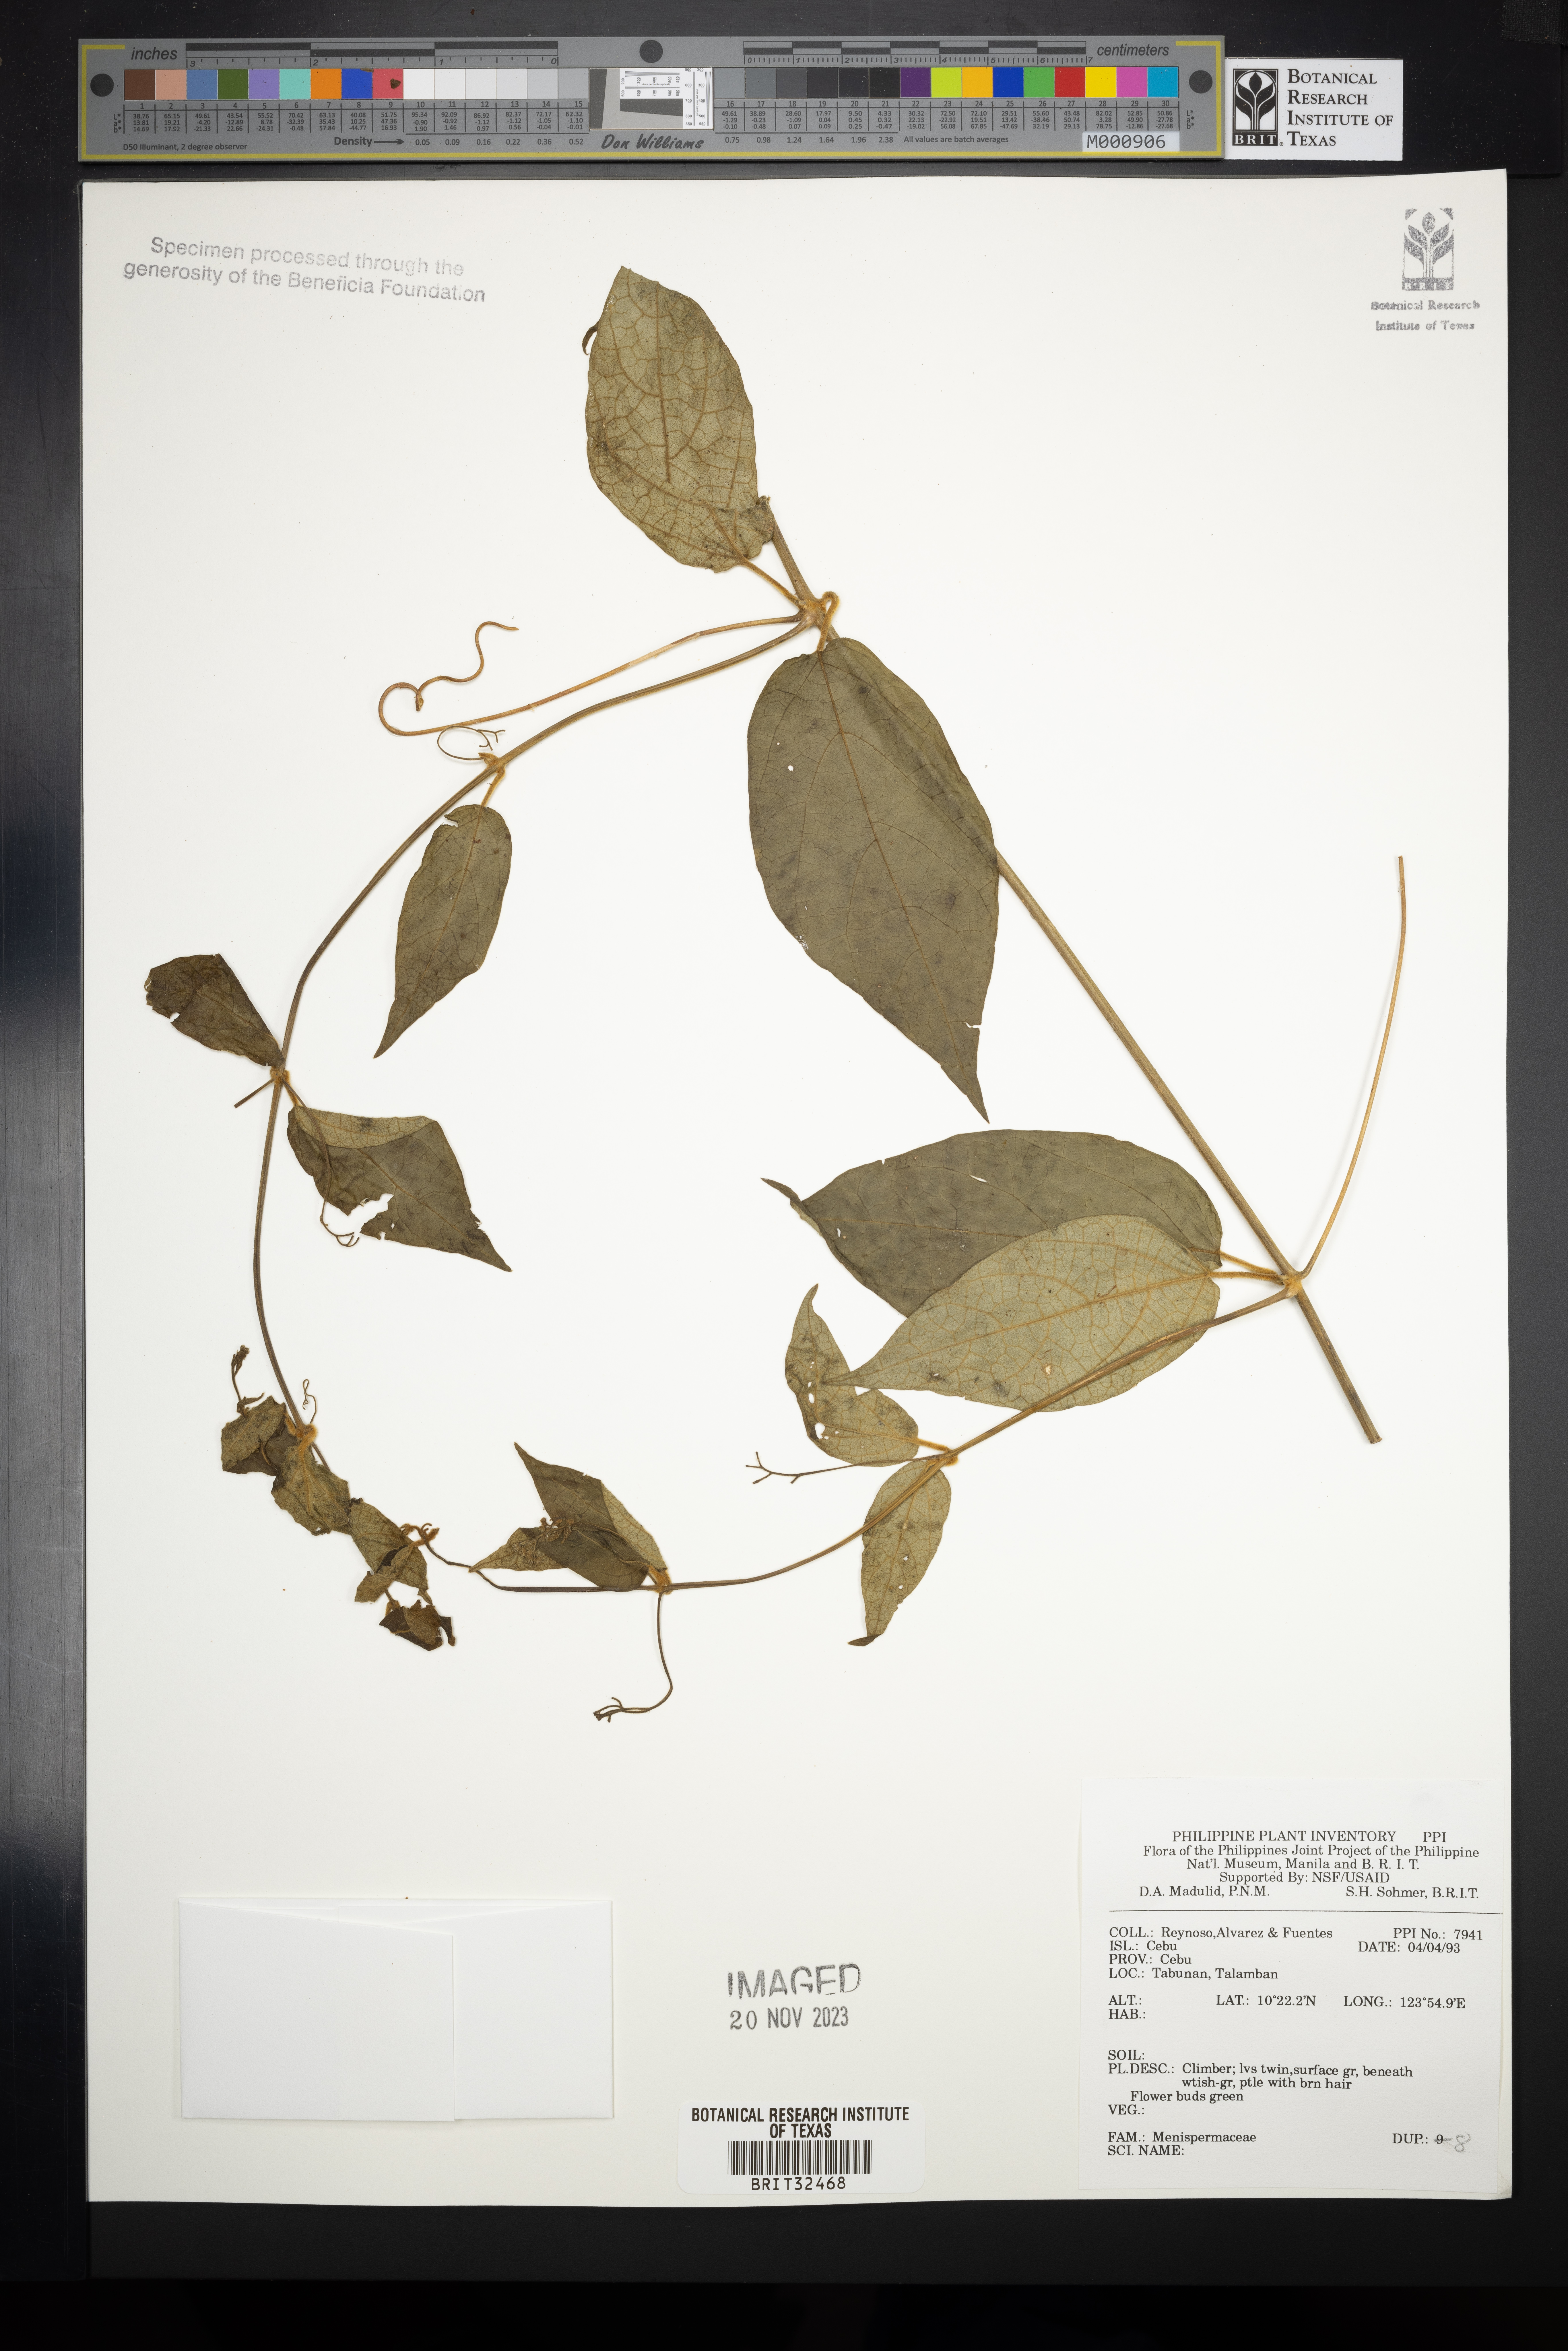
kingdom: Plantae
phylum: Tracheophyta
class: Magnoliopsida
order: Ranunculales
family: Menispermaceae
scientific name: Menispermaceae
